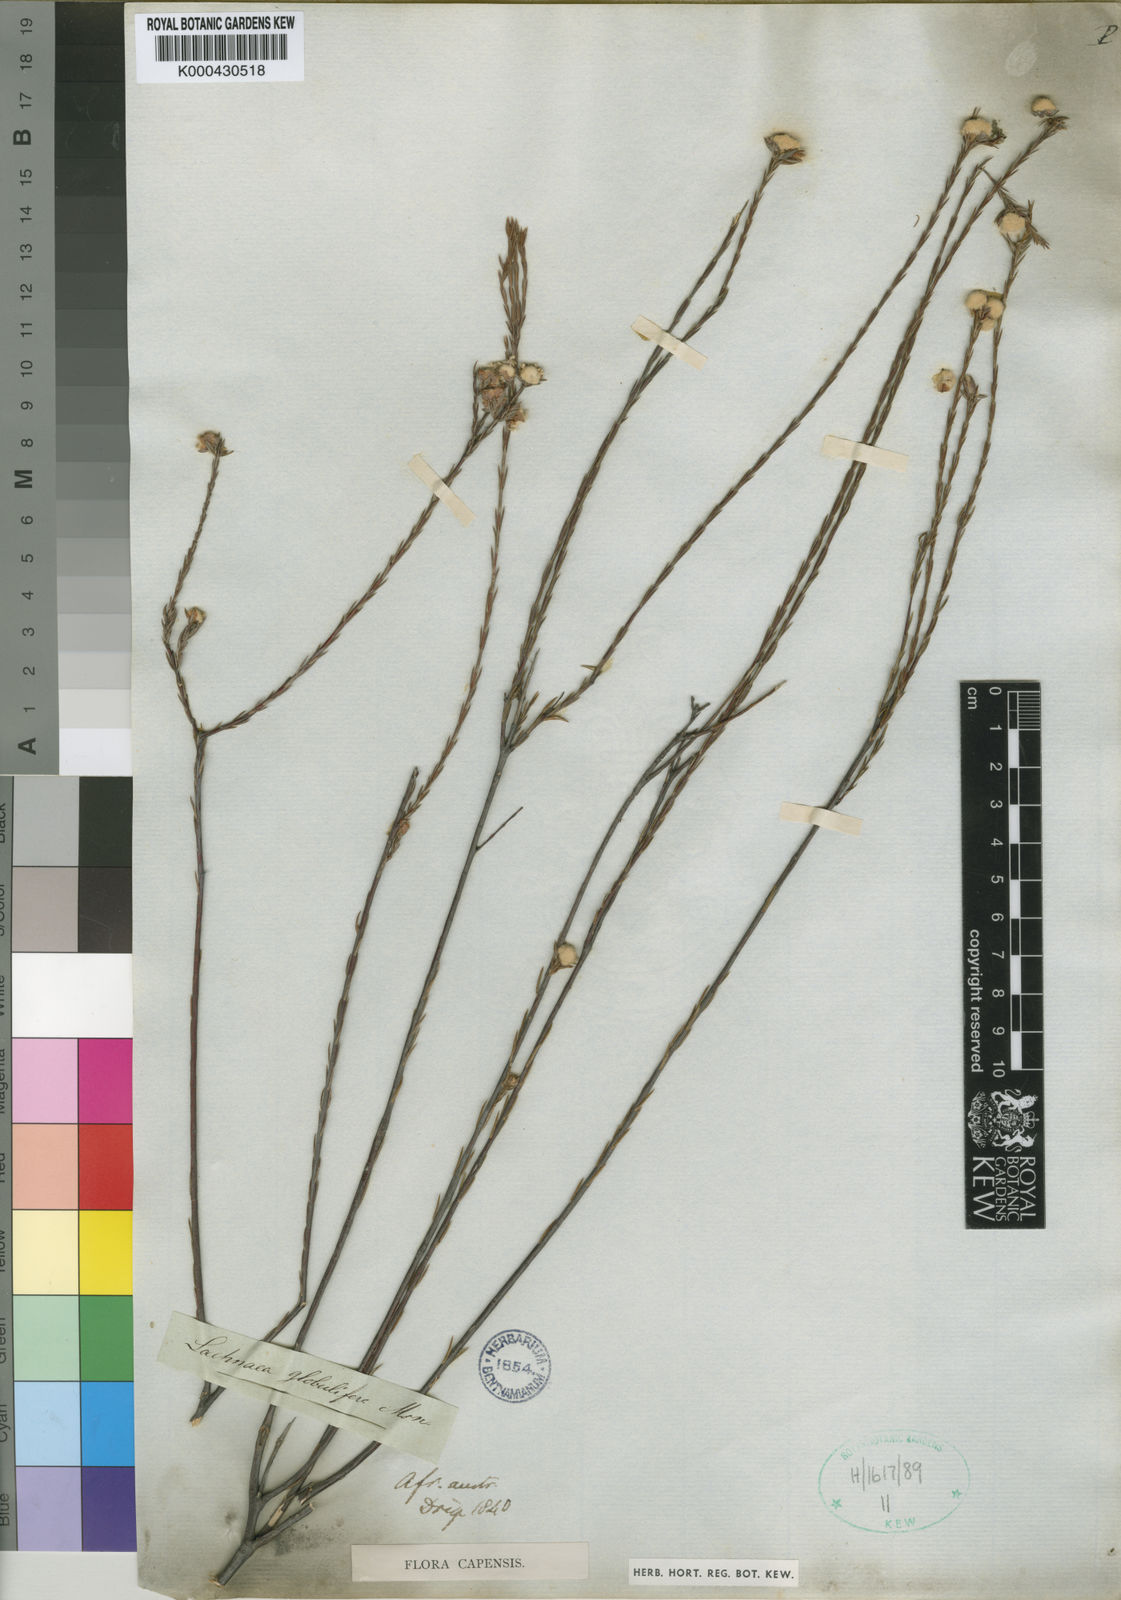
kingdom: Plantae
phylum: Tracheophyta
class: Magnoliopsida
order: Malvales
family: Thymelaeaceae
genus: Lachnaea
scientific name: Lachnaea globulifera
